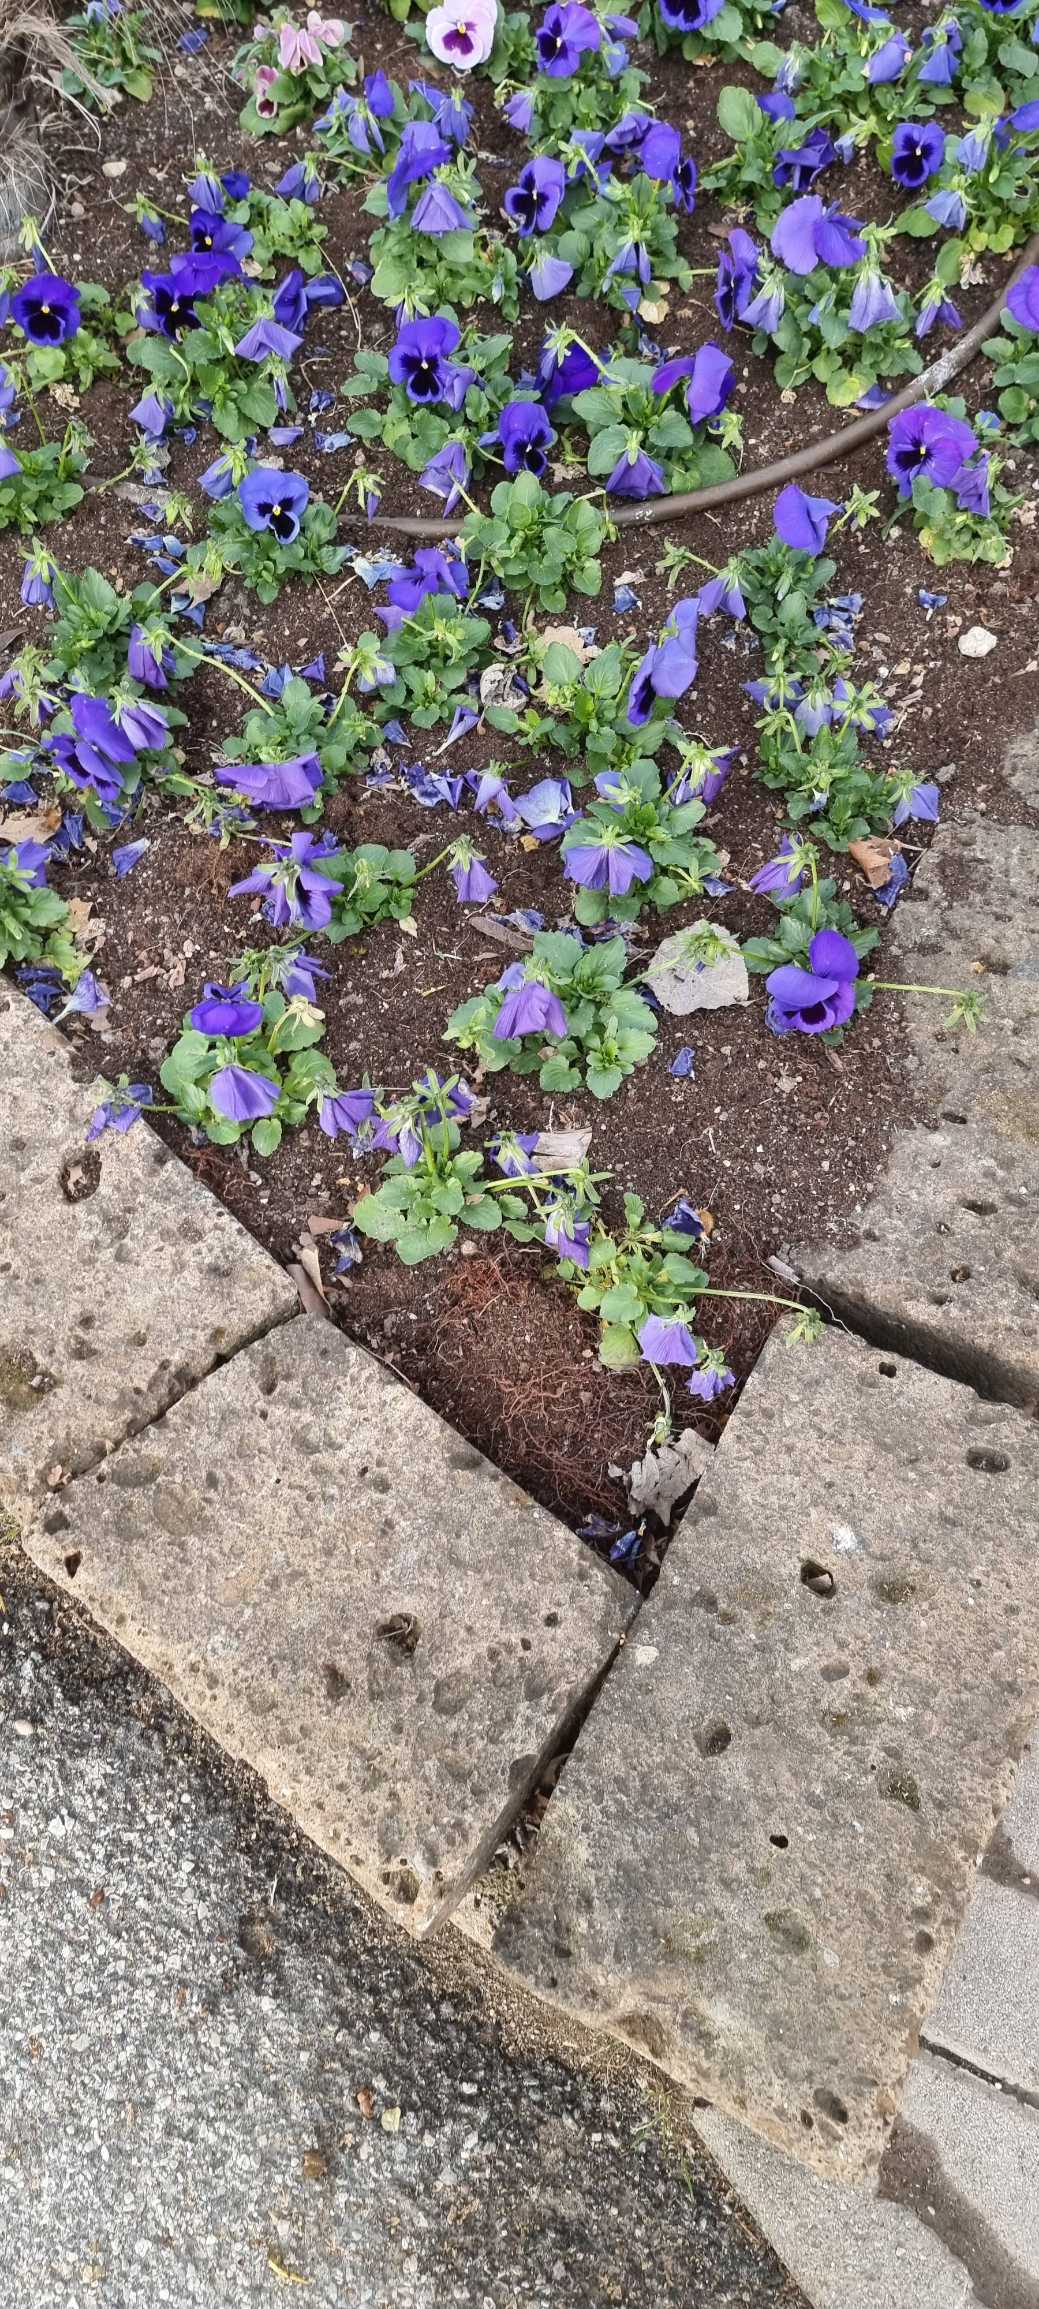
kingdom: Plantae
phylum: Tracheophyta
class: Magnoliopsida
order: Malpighiales
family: Violaceae
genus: Viola
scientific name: Viola wittrockiana
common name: Have-stedmoderblomst
